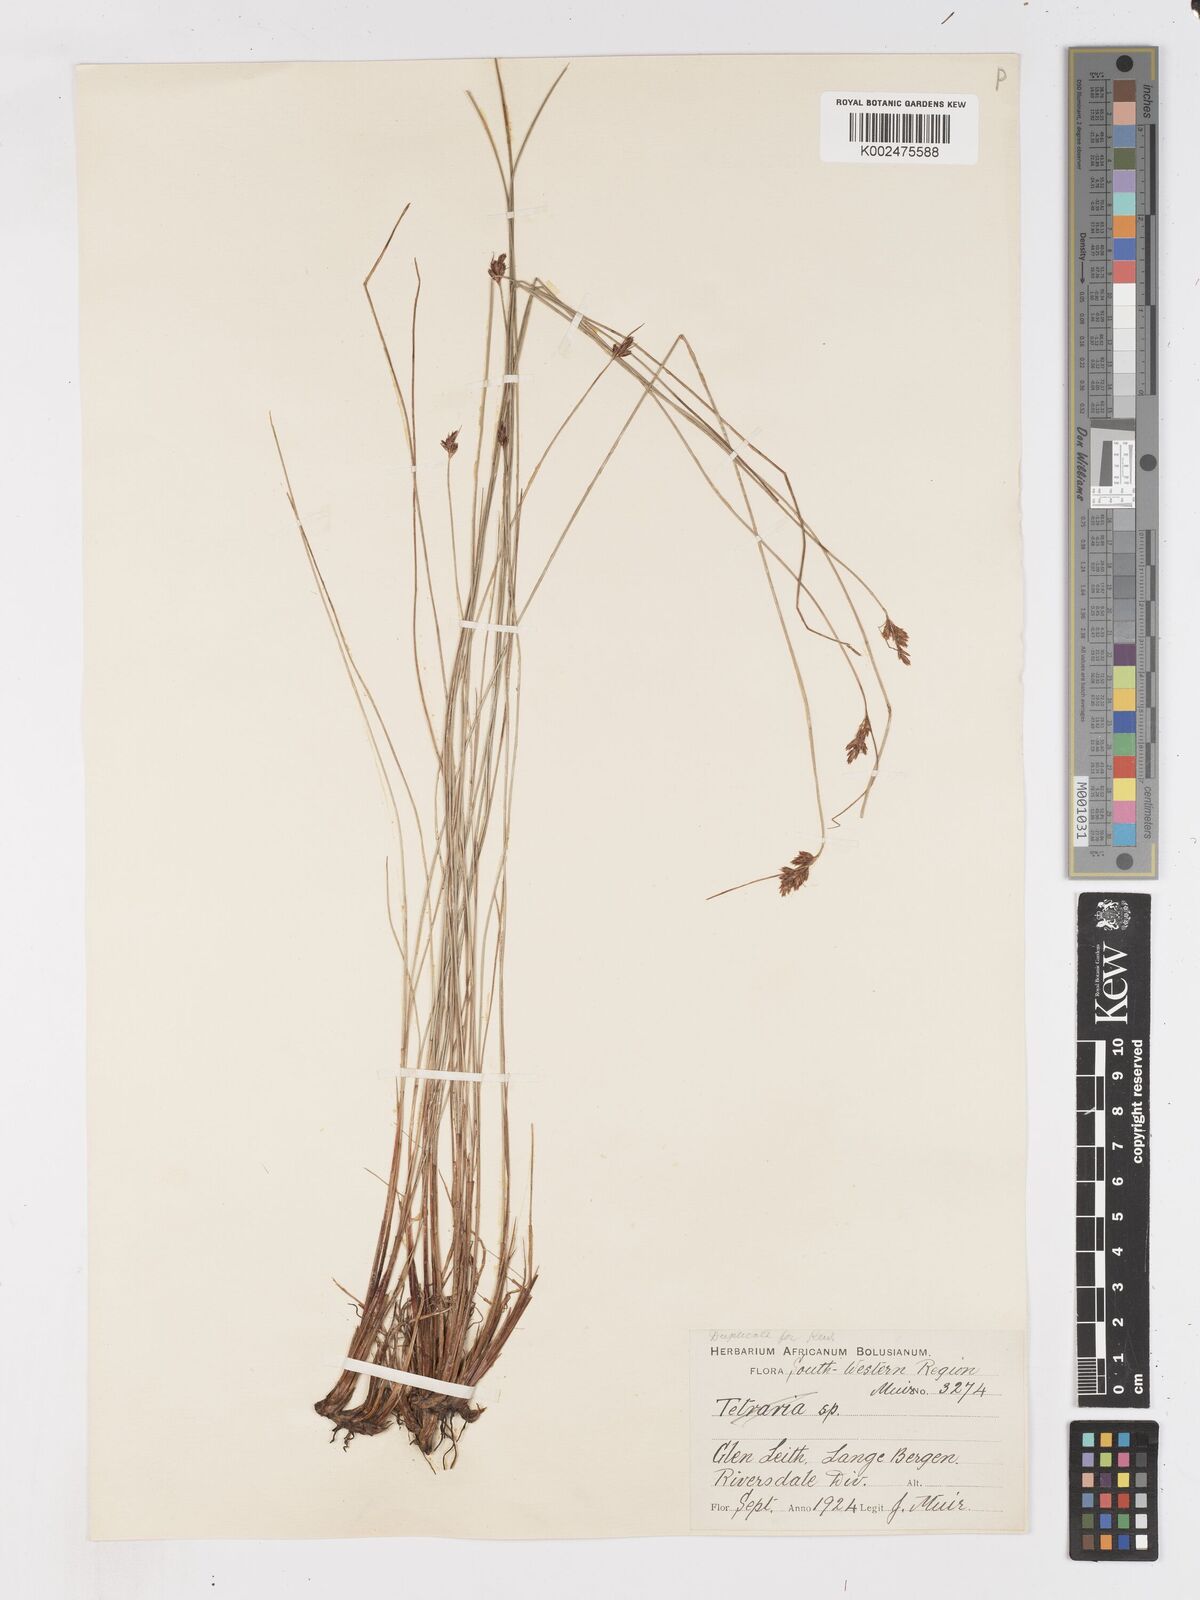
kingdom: Plantae
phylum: Tracheophyta
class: Liliopsida
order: Poales
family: Cyperaceae
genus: Ficinia
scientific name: Ficinia fascicularis
